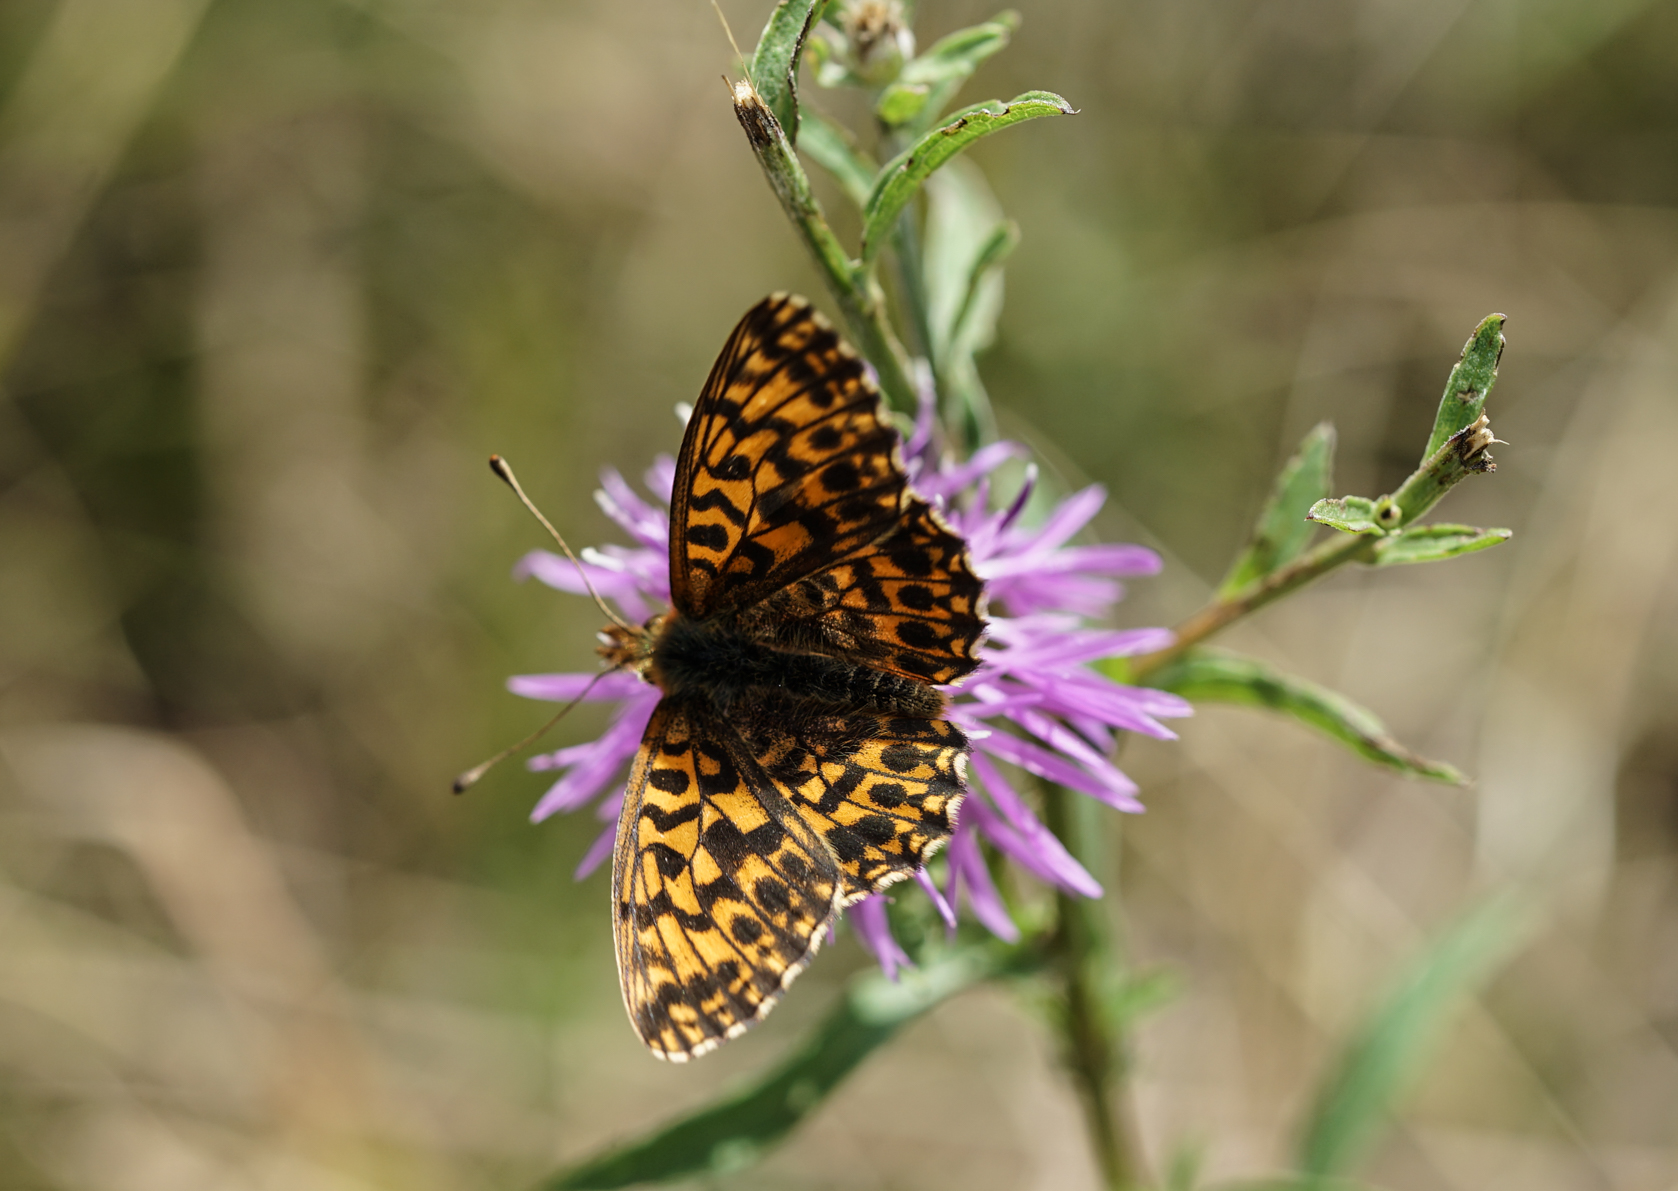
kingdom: Animalia
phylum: Arthropoda
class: Insecta
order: Lepidoptera
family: Nymphalidae
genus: Boloria
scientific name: Boloria dia
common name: Weaver's fritillary
